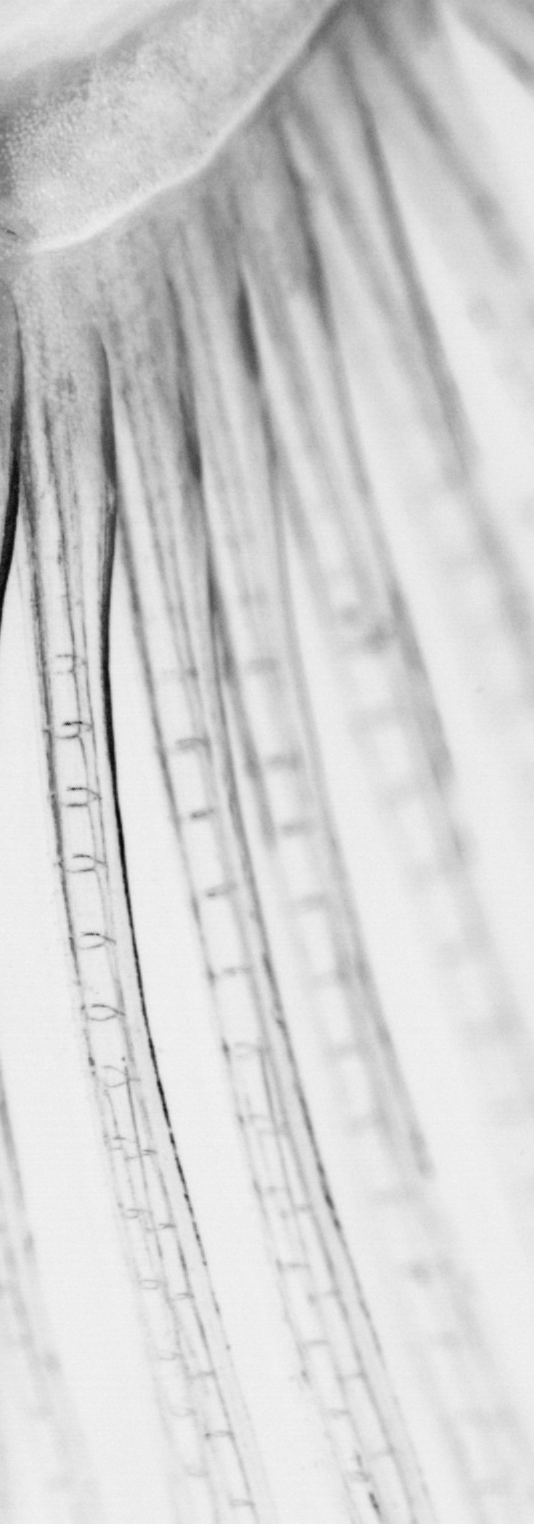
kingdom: Animalia
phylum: Chordata
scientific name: Chordata
